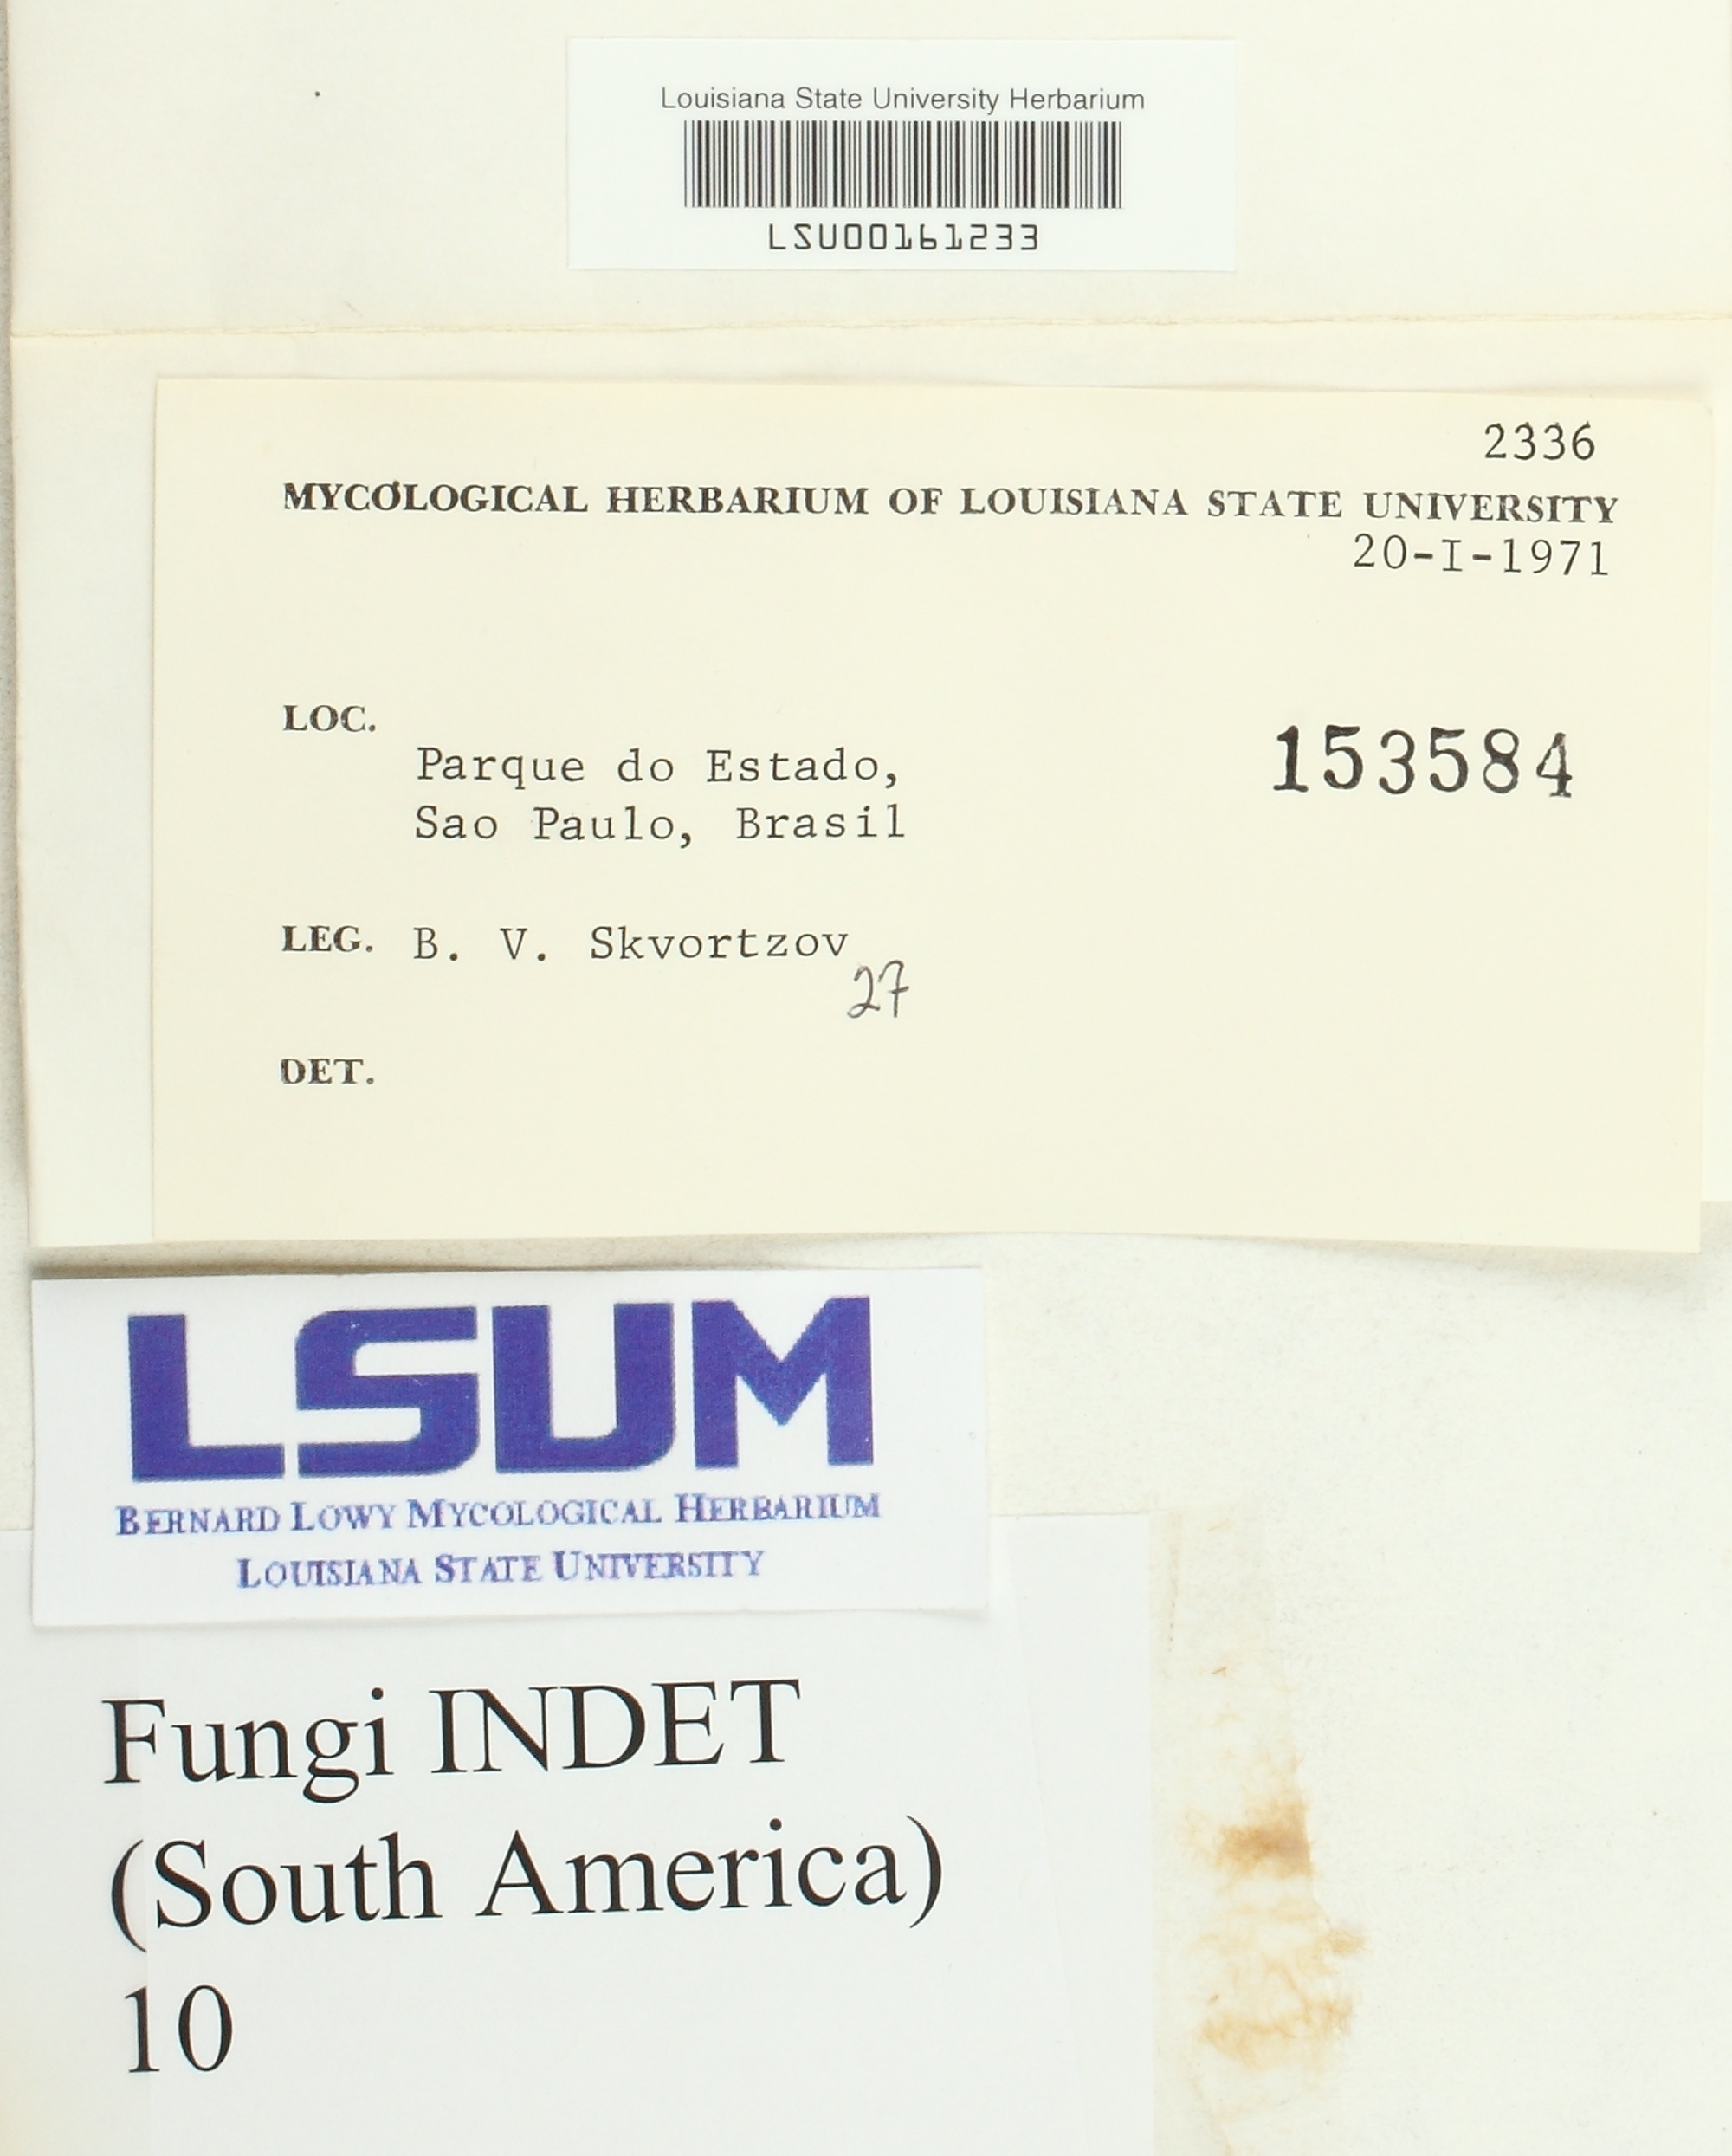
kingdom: Fungi
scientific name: Fungi
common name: Fungi
